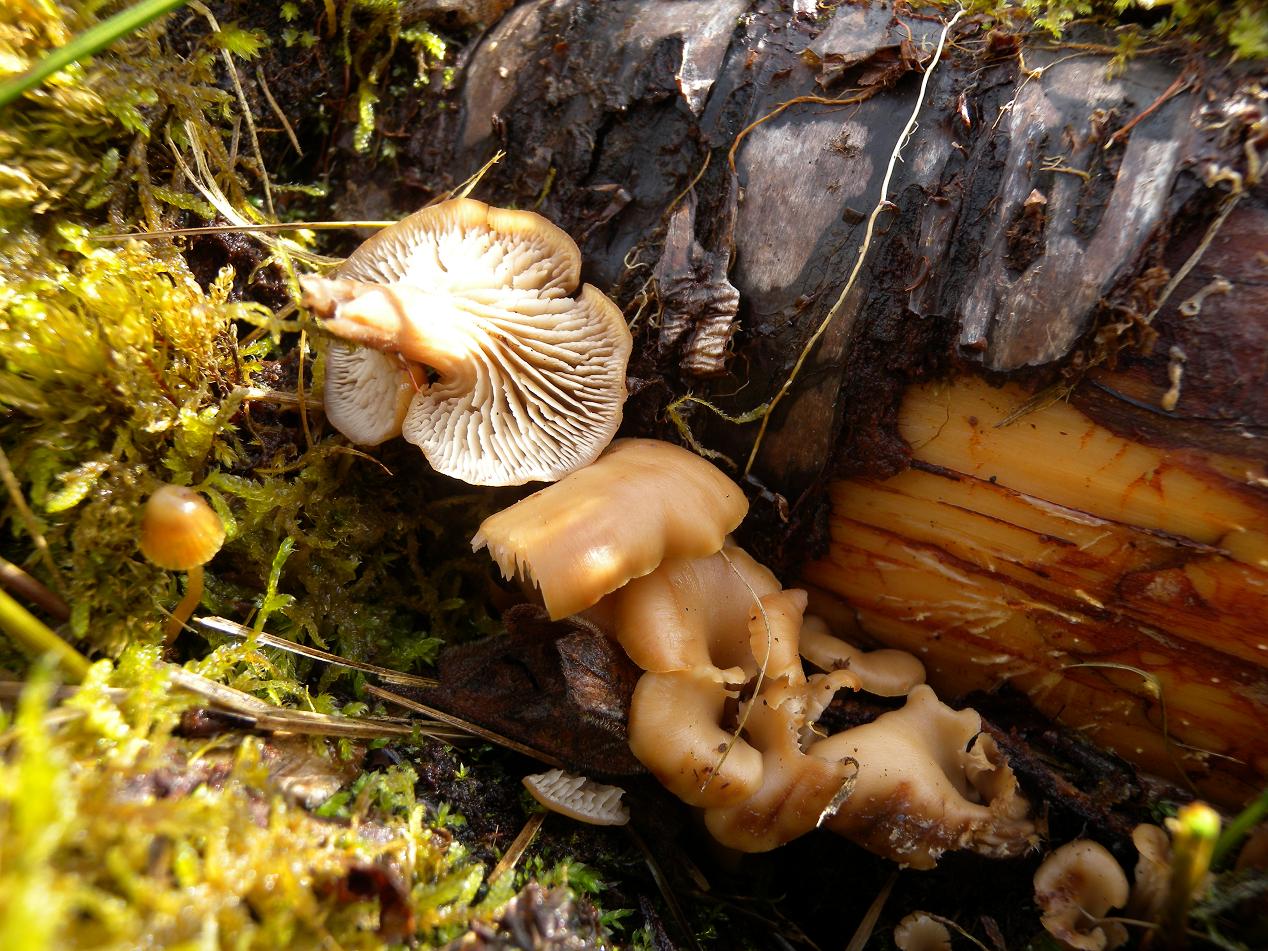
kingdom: Fungi
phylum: Basidiomycota
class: Agaricomycetes
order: Russulales
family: Auriscalpiaceae
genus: Lentinellus
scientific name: Lentinellus cochleatus
